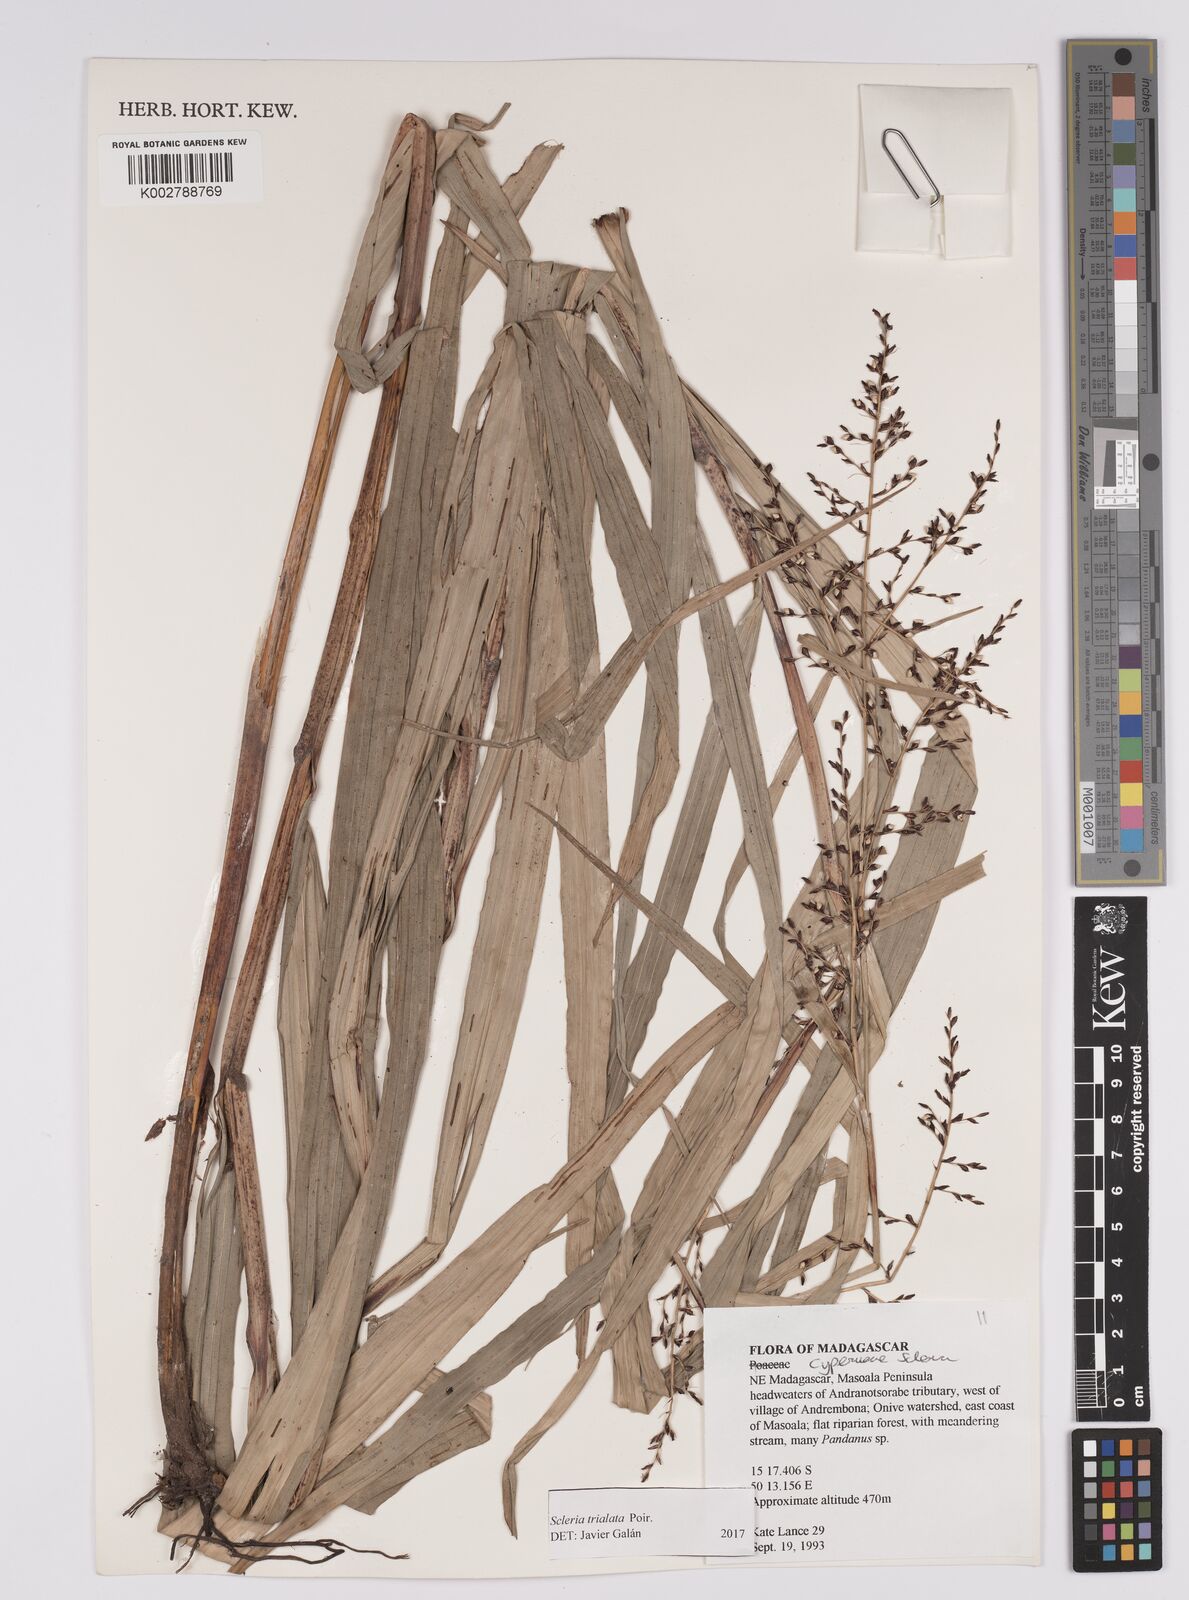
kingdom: Plantae
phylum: Tracheophyta
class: Liliopsida
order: Poales
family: Cyperaceae
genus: Scleria
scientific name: Scleria trialata
